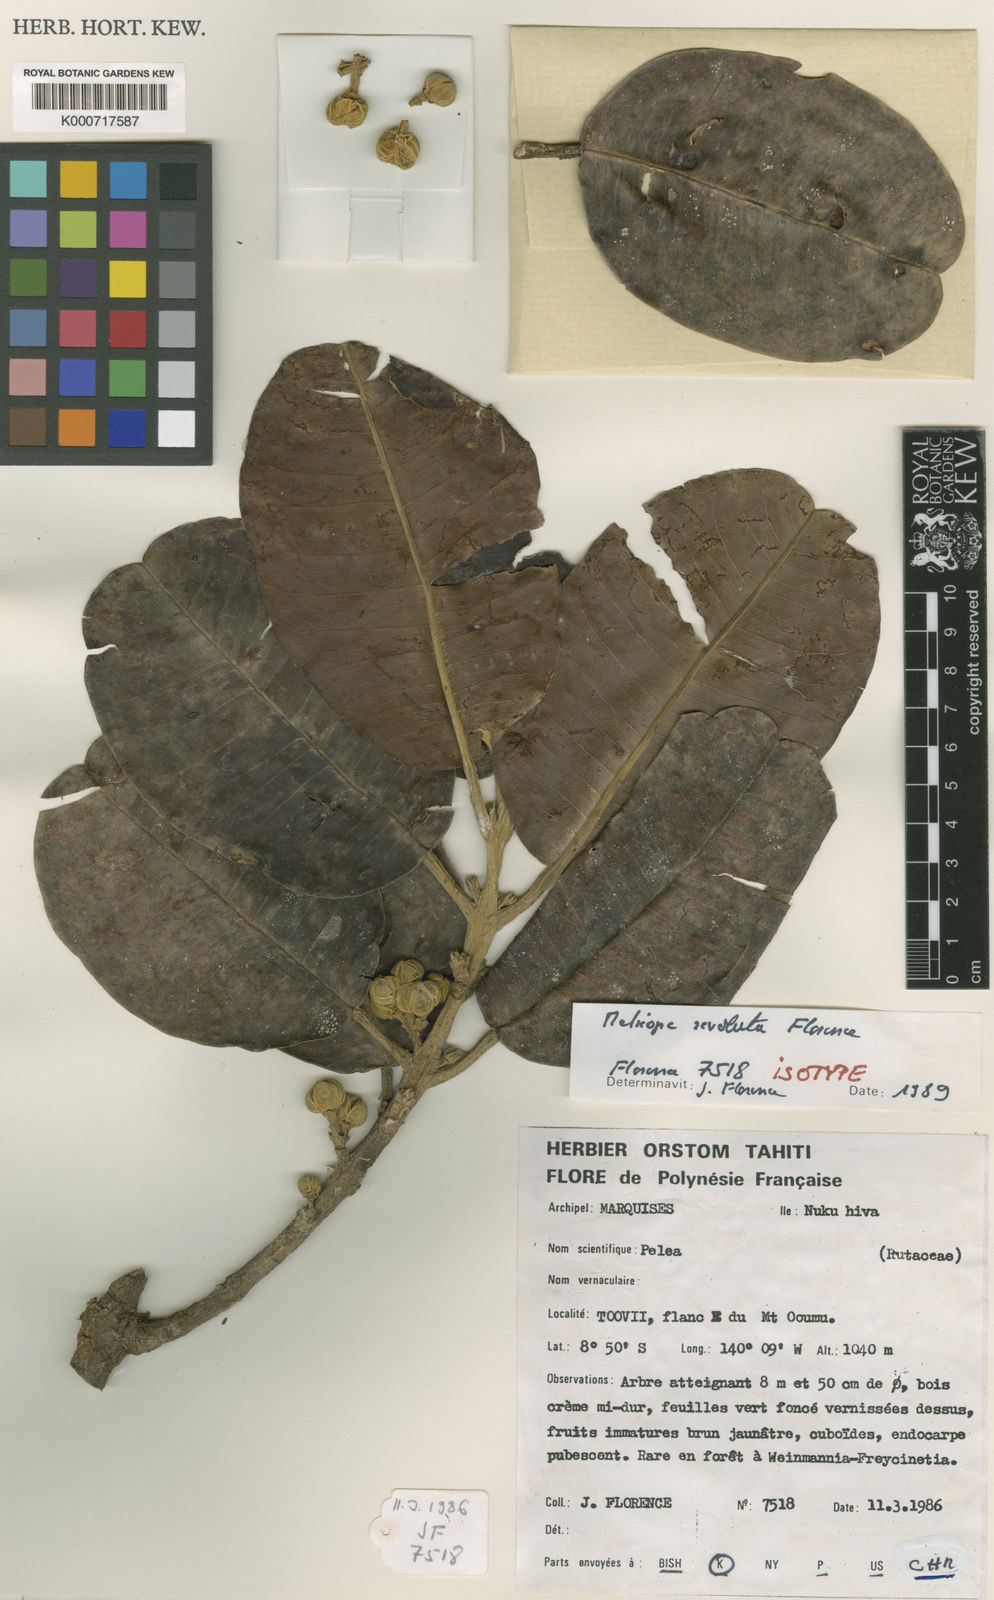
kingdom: Plantae
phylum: Tracheophyta
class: Magnoliopsida
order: Sapindales
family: Rutaceae
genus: Melicope
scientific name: Melicope revoluta
